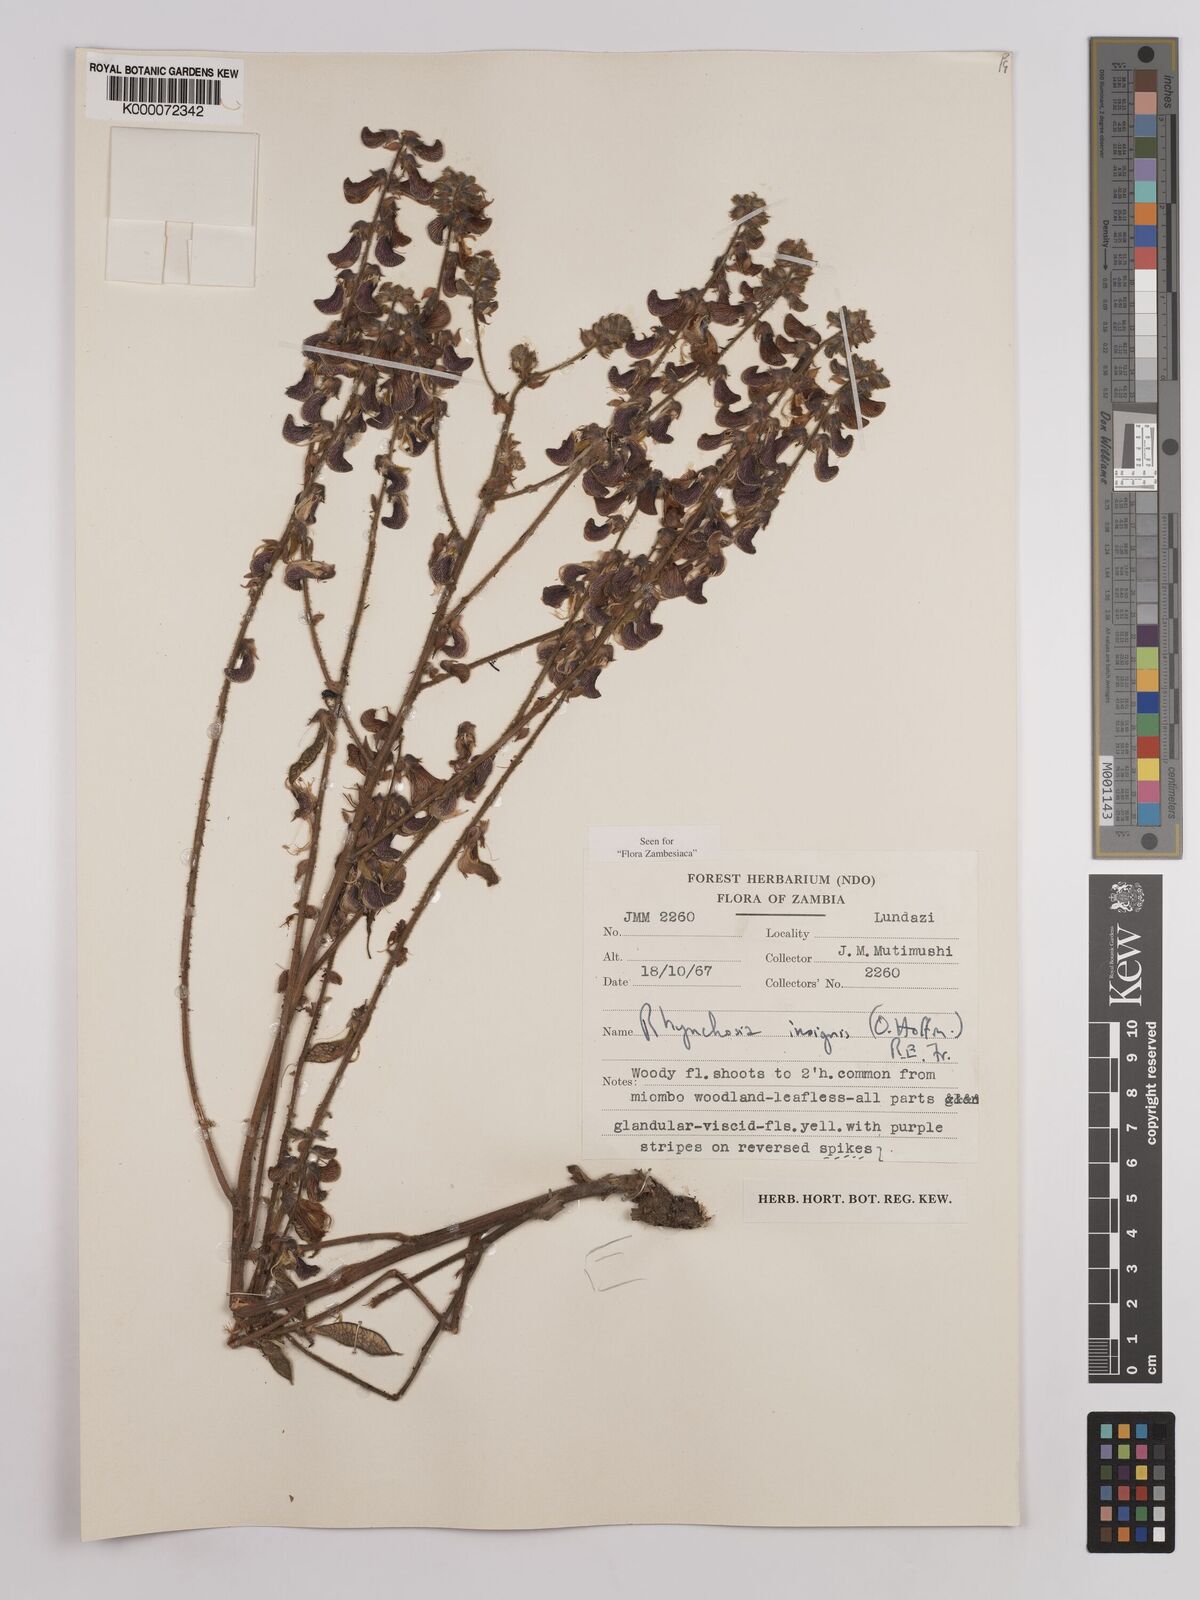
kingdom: Plantae
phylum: Tracheophyta
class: Magnoliopsida
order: Fabales
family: Fabaceae
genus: Rhynchosia
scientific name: Rhynchosia insignis
